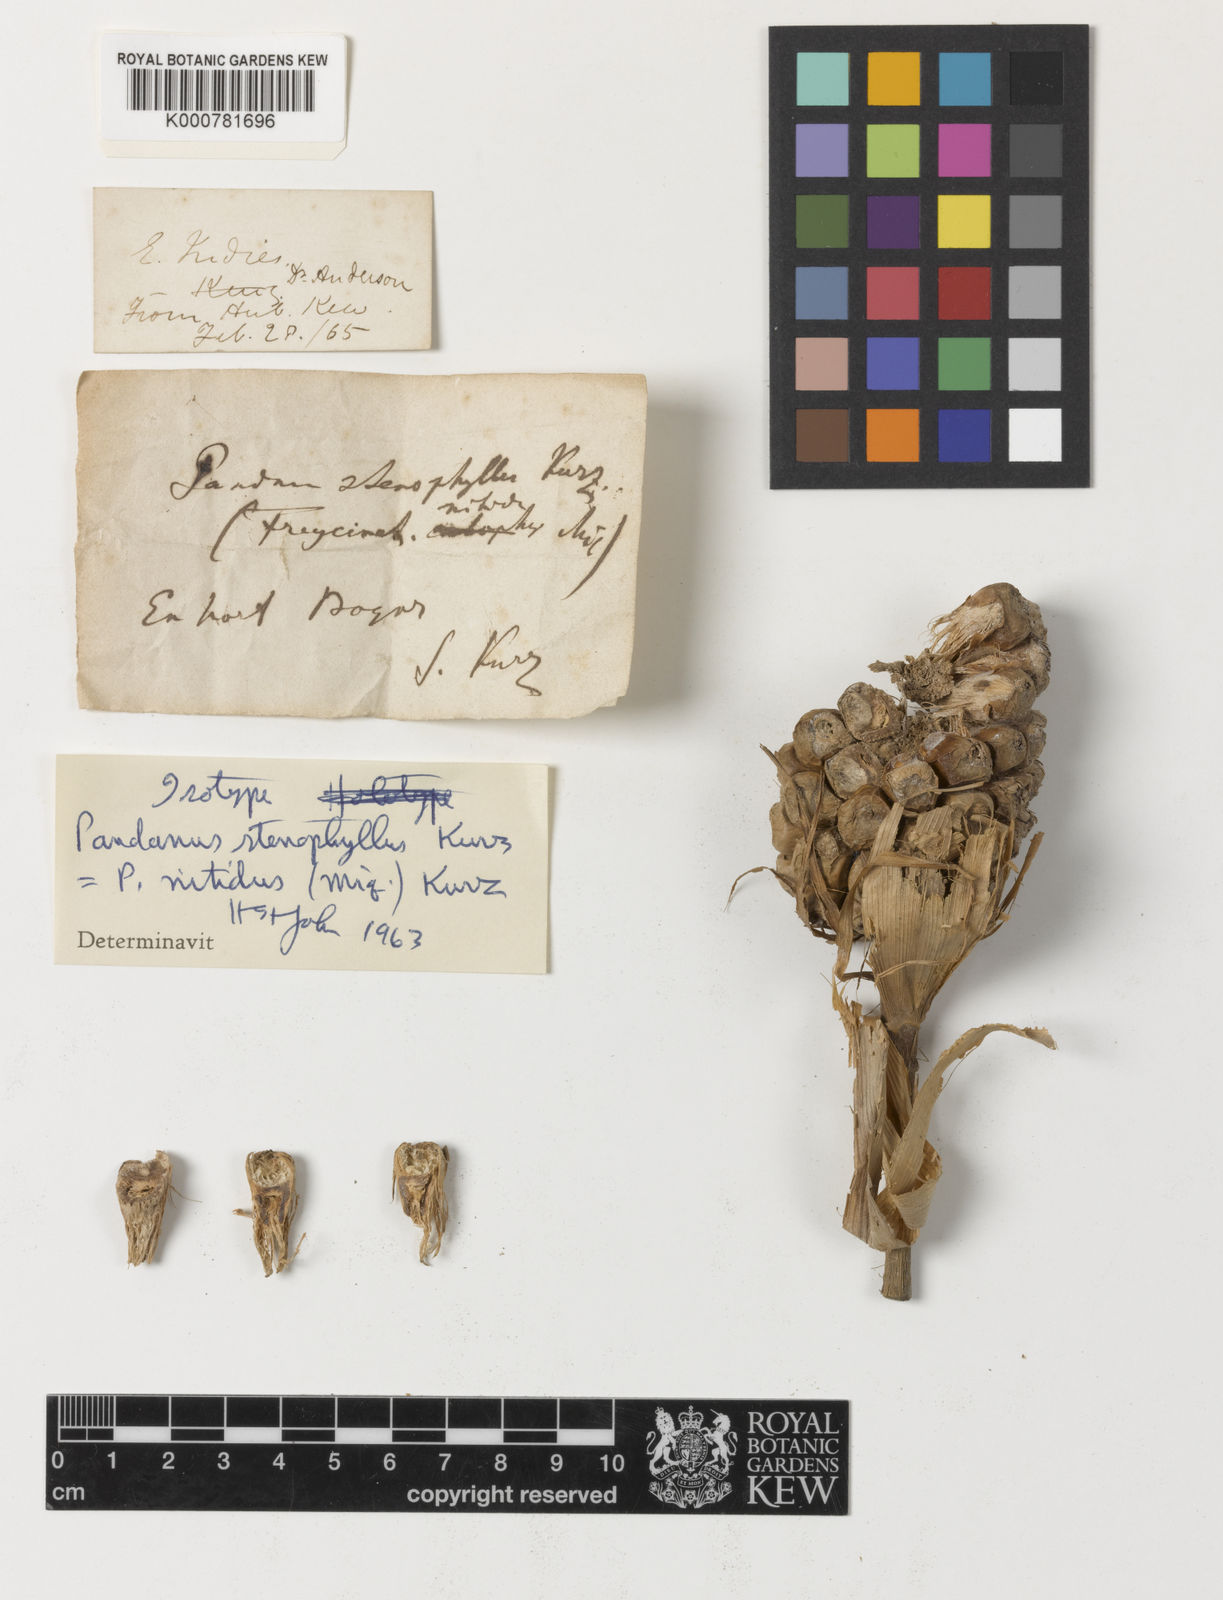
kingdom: Plantae
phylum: Tracheophyta
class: Liliopsida
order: Pandanales
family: Pandanaceae
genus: Pandanus
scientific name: Pandanus
